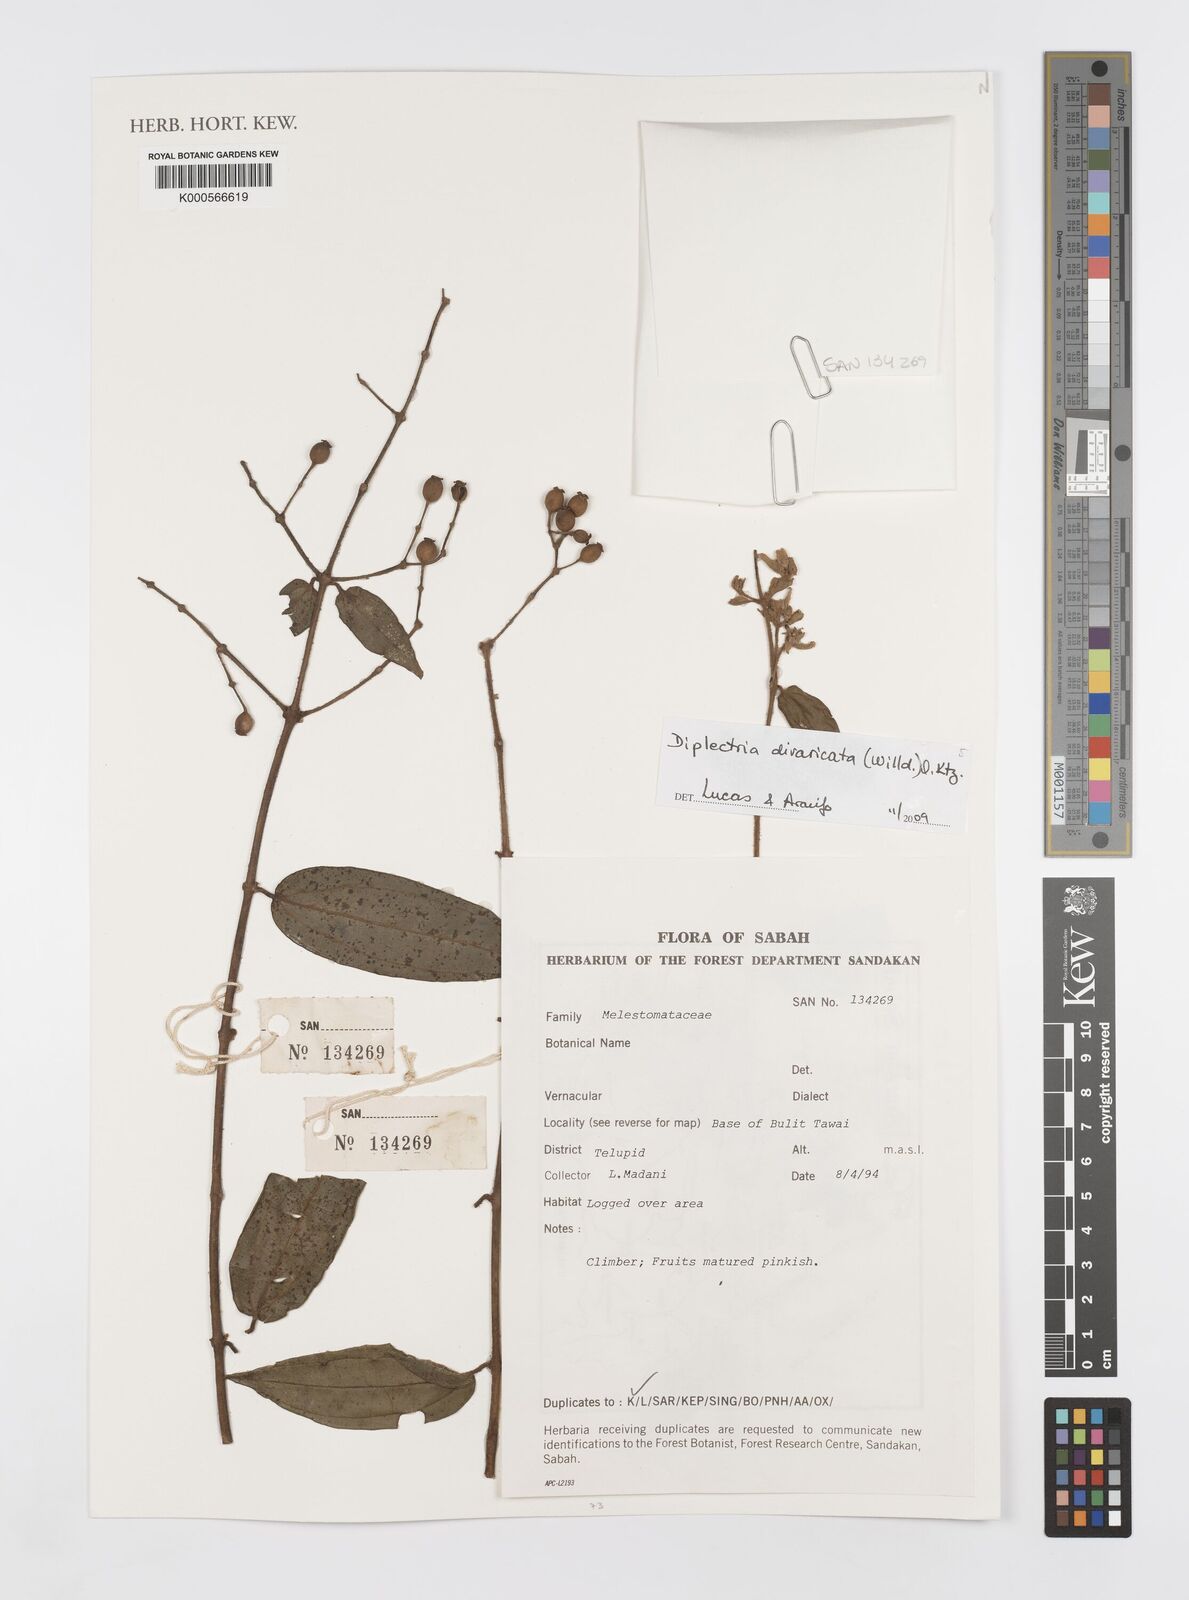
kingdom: Plantae
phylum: Tracheophyta
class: Magnoliopsida
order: Myrtales
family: Melastomataceae
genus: Diplectria
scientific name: Diplectria
